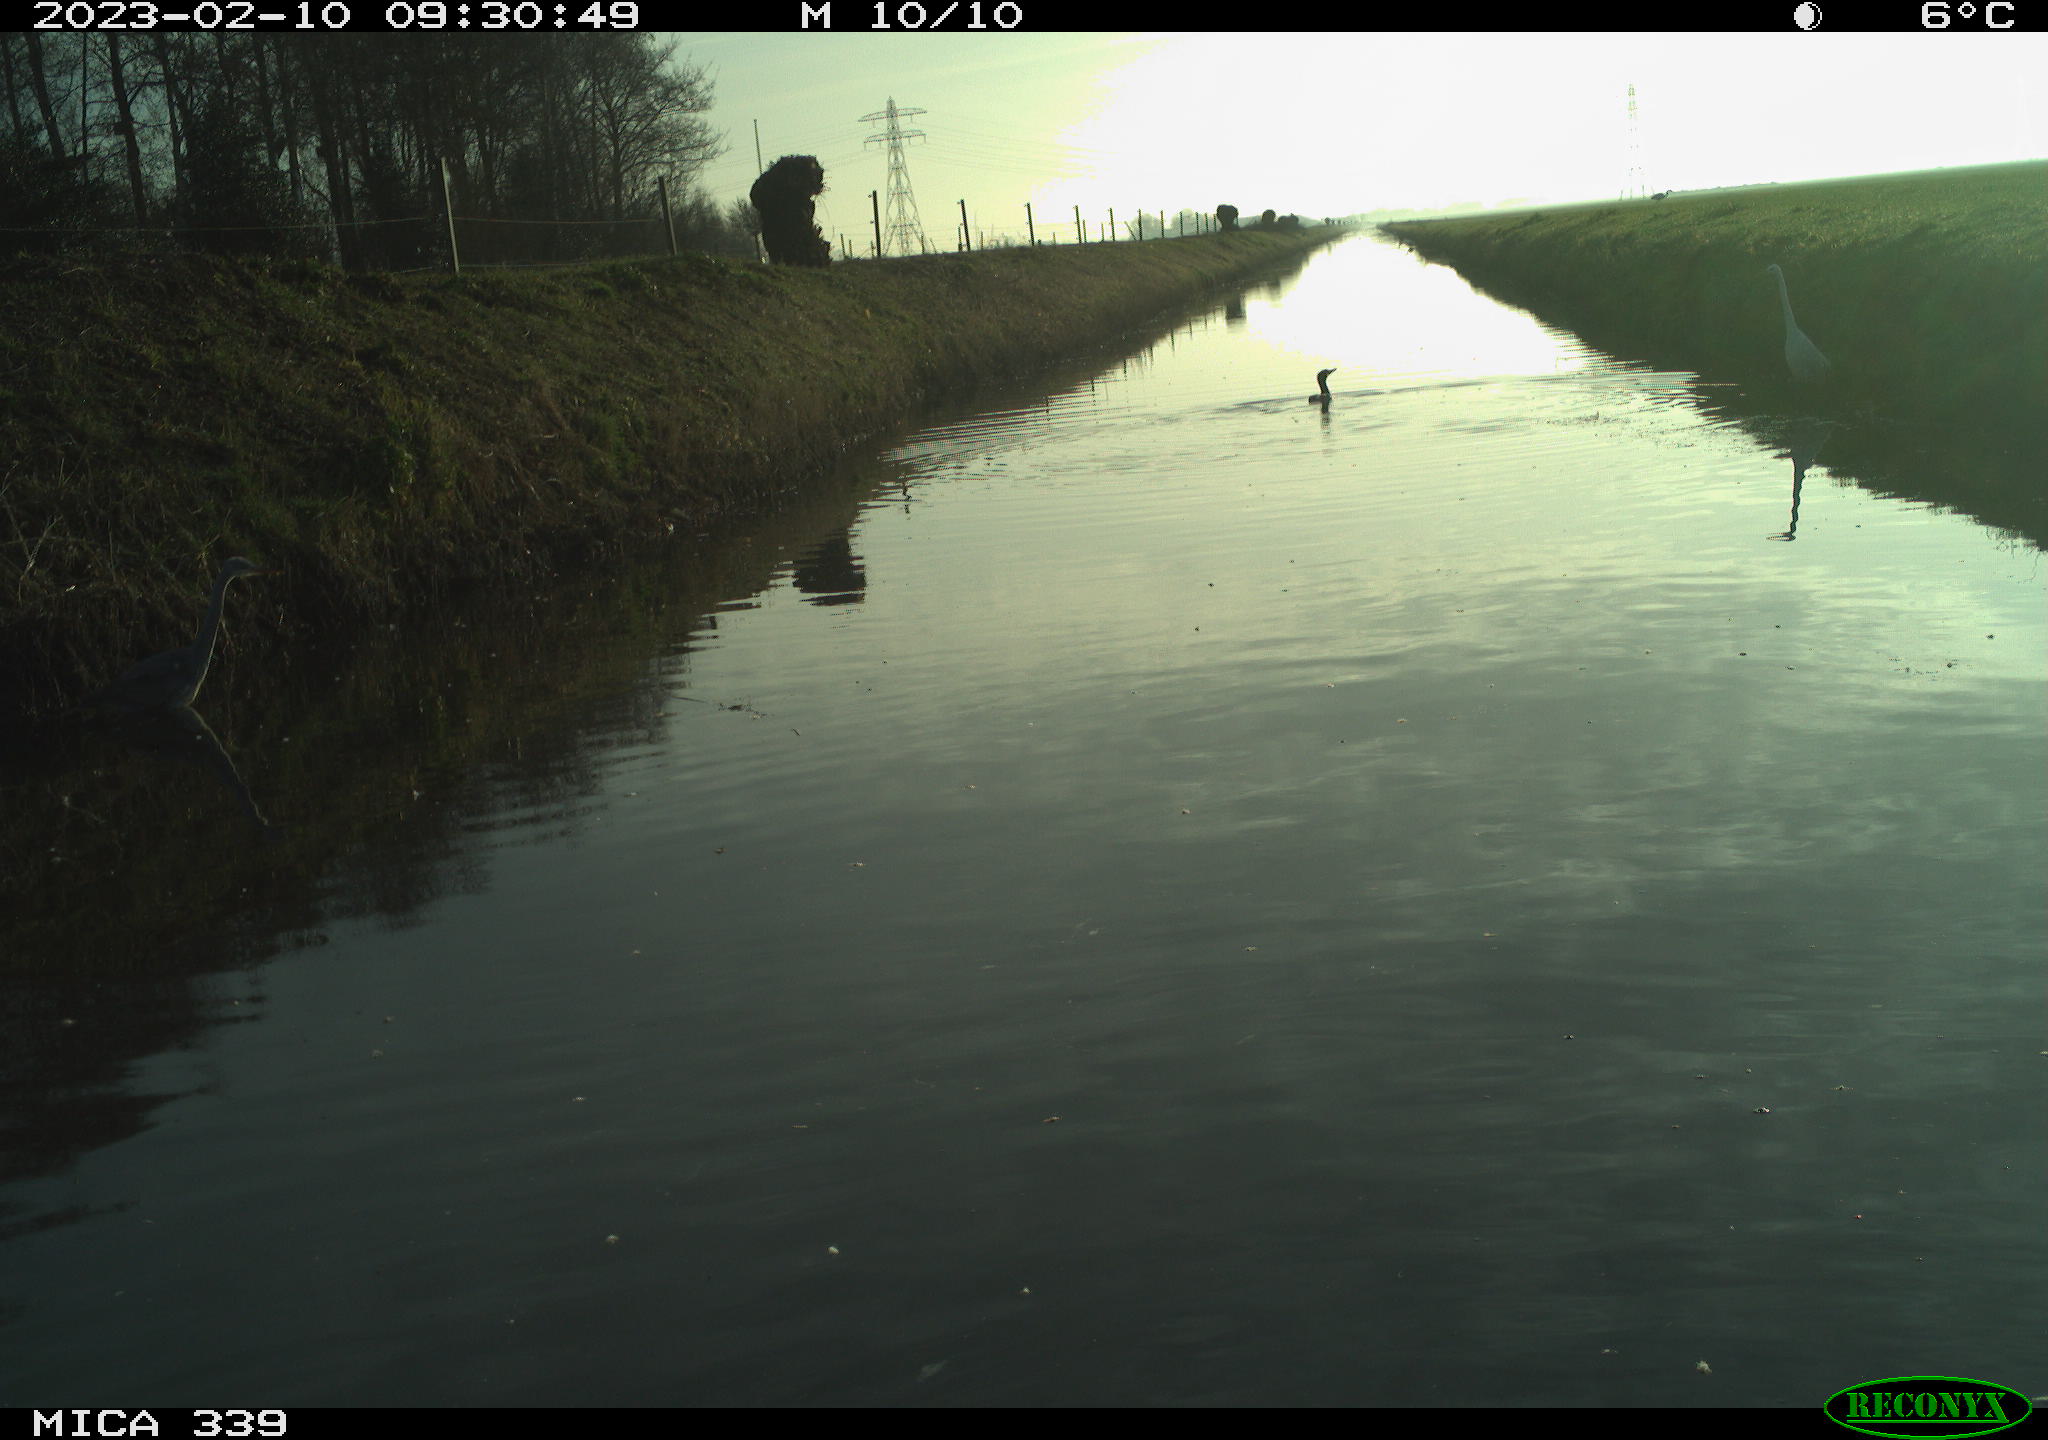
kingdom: Animalia
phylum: Chordata
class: Aves
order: Pelecaniformes
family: Ardeidae
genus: Ardea
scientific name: Ardea cinerea
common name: Grey heron
